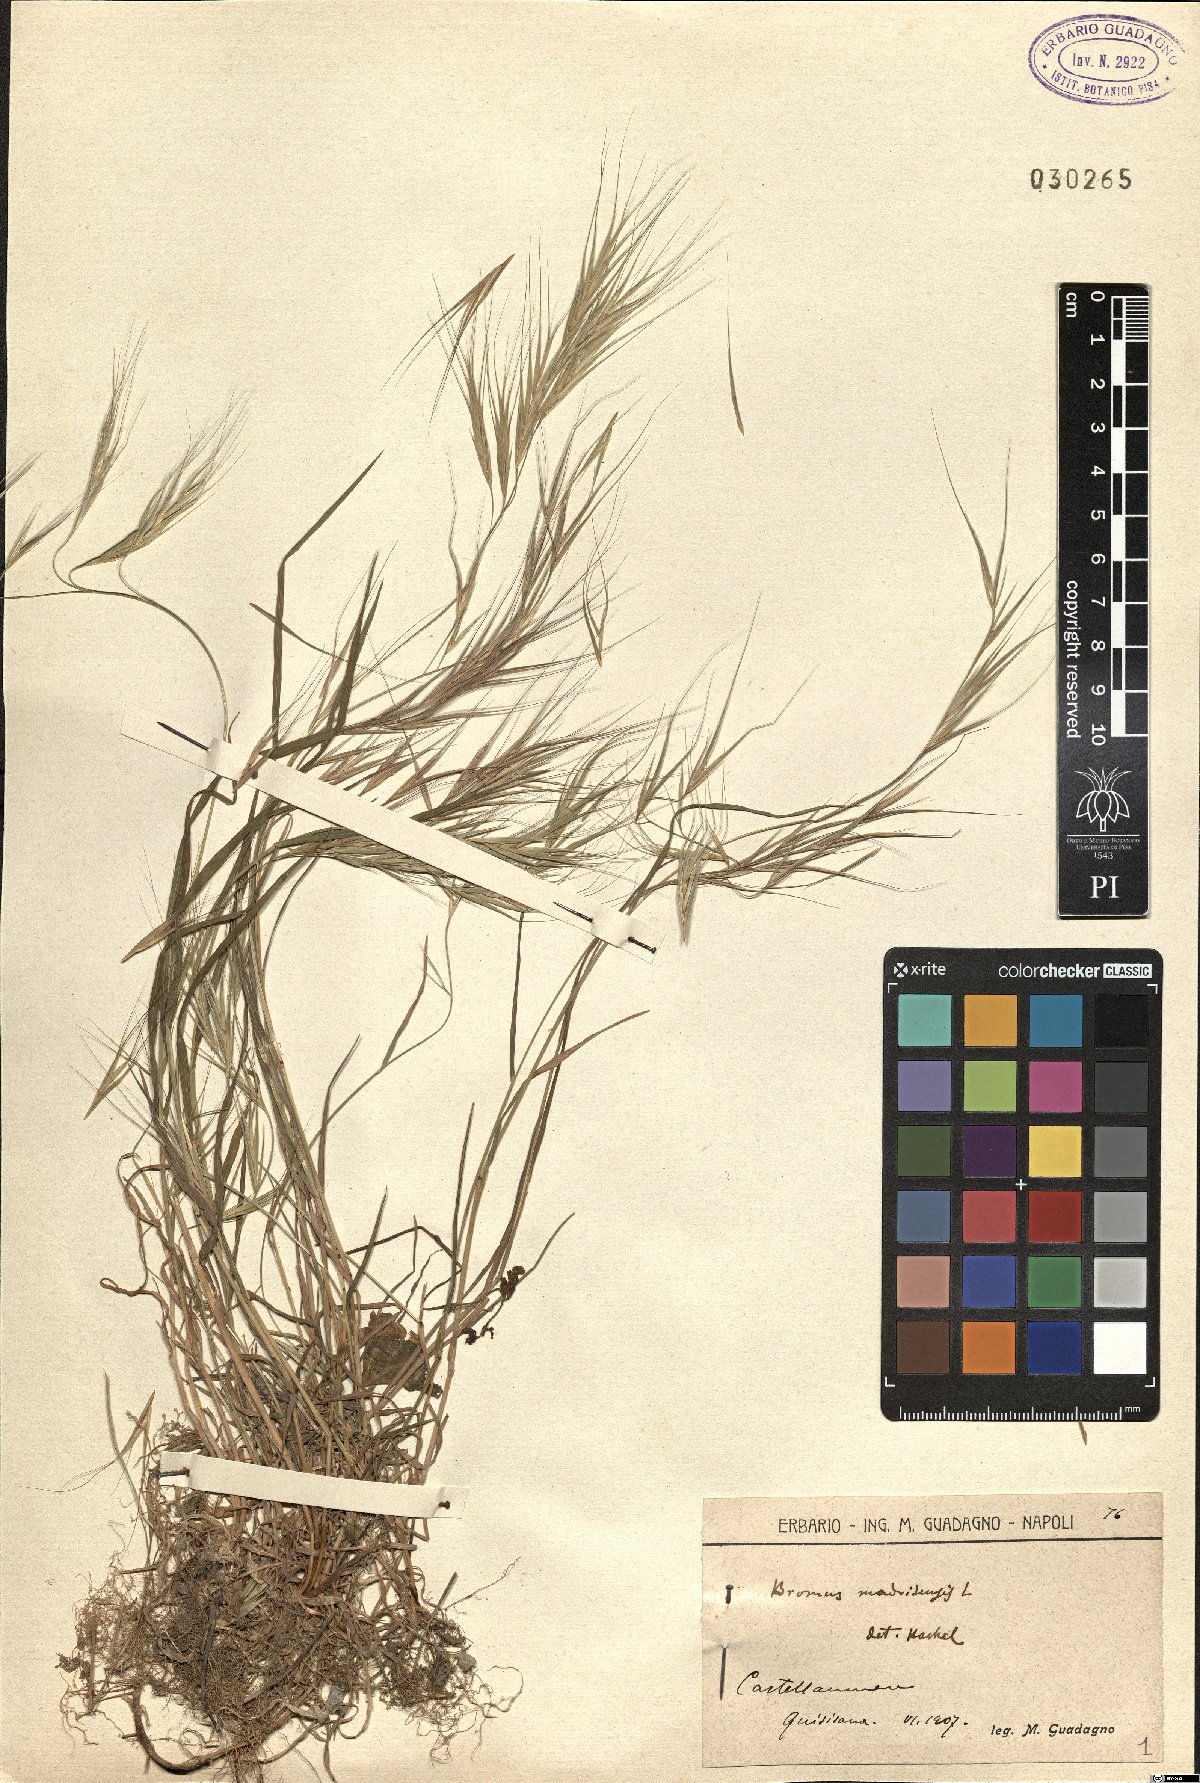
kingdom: Plantae
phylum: Tracheophyta
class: Liliopsida
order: Poales
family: Poaceae
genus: Bromus
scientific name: Bromus madritensis
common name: Compact brome
